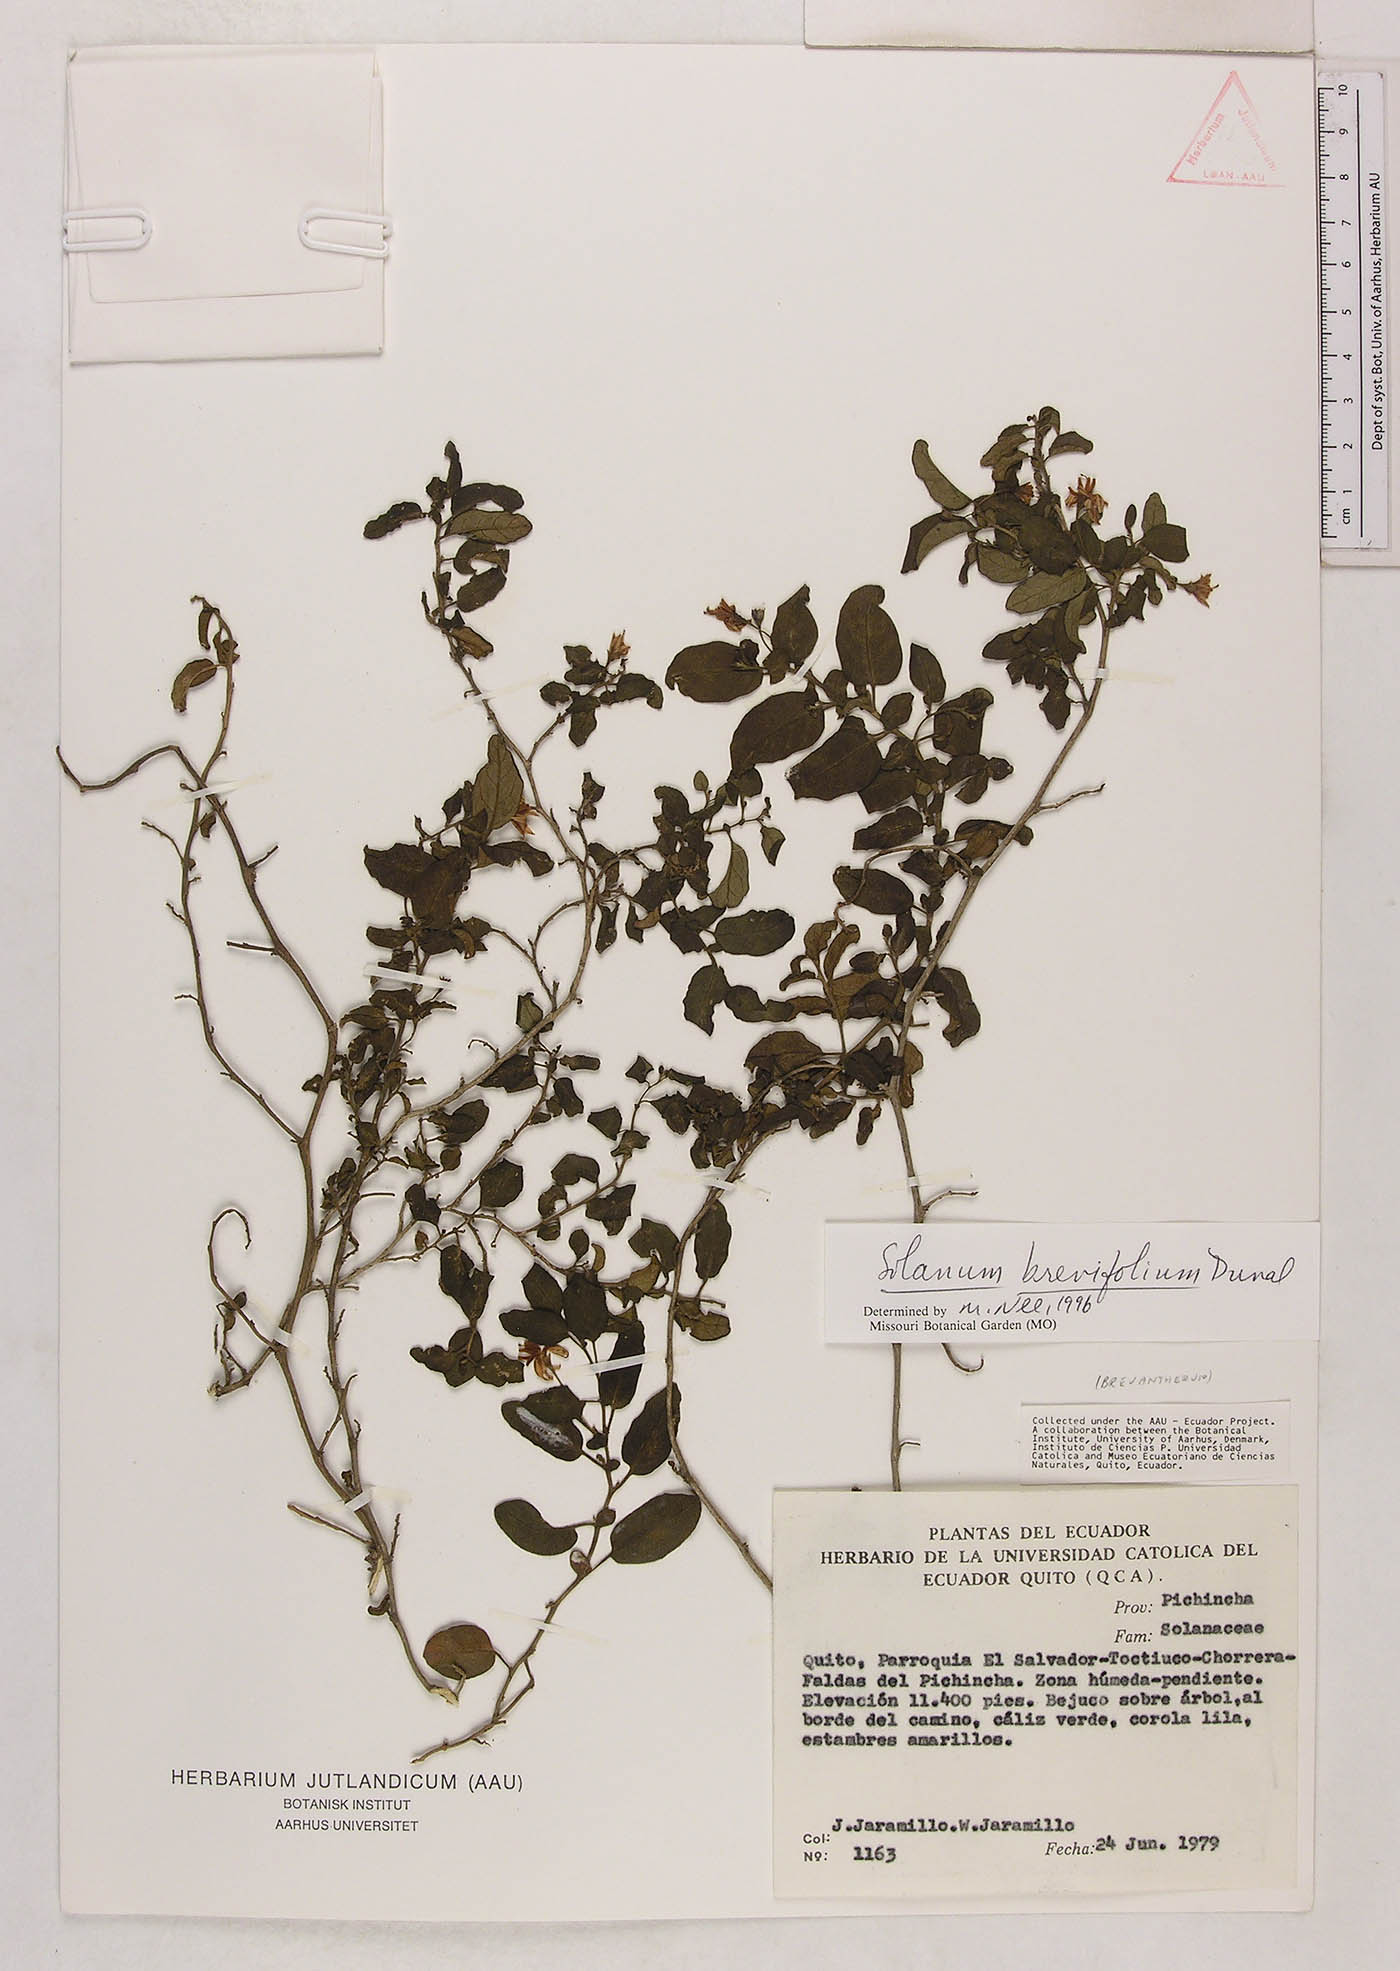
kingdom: Plantae
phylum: Tracheophyta
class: Magnoliopsida
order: Solanales
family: Solanaceae
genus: Solanum
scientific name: Solanum brevifolium
